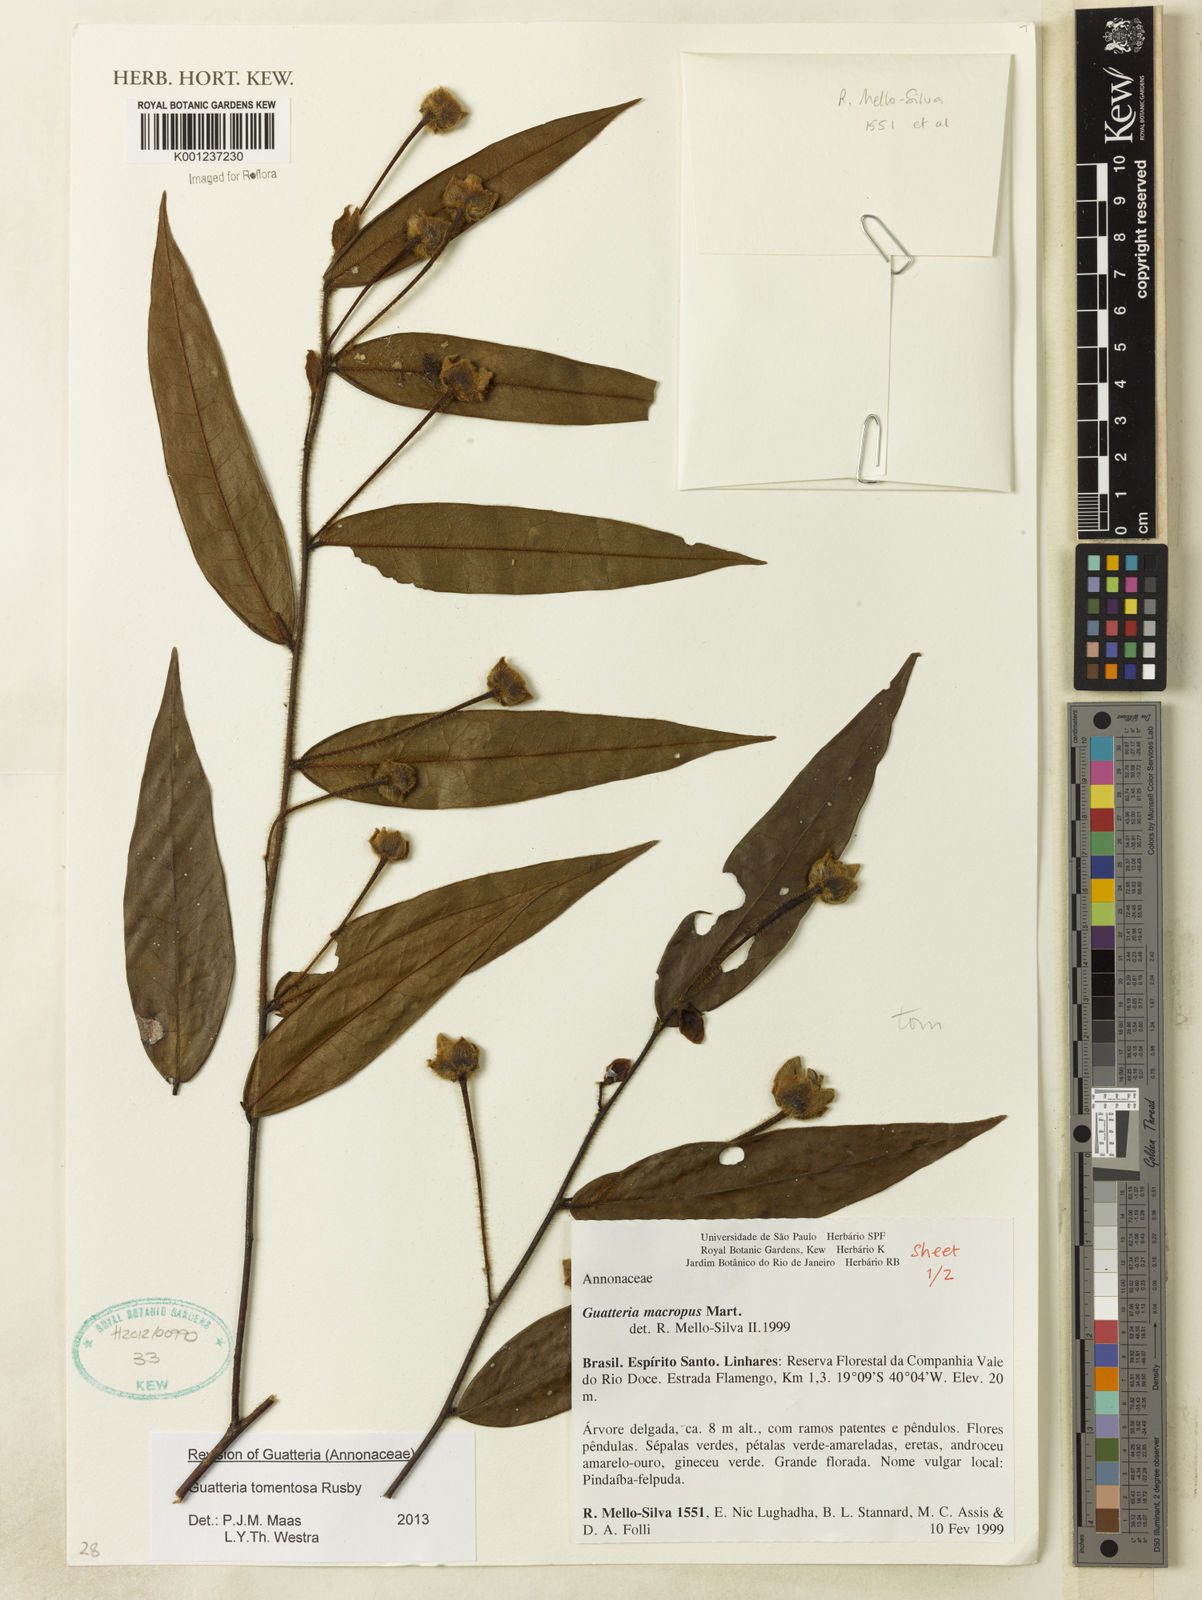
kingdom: Plantae
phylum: Tracheophyta
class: Magnoliopsida
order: Magnoliales
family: Annonaceae
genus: Guatteria
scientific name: Guatteria tomentosa
